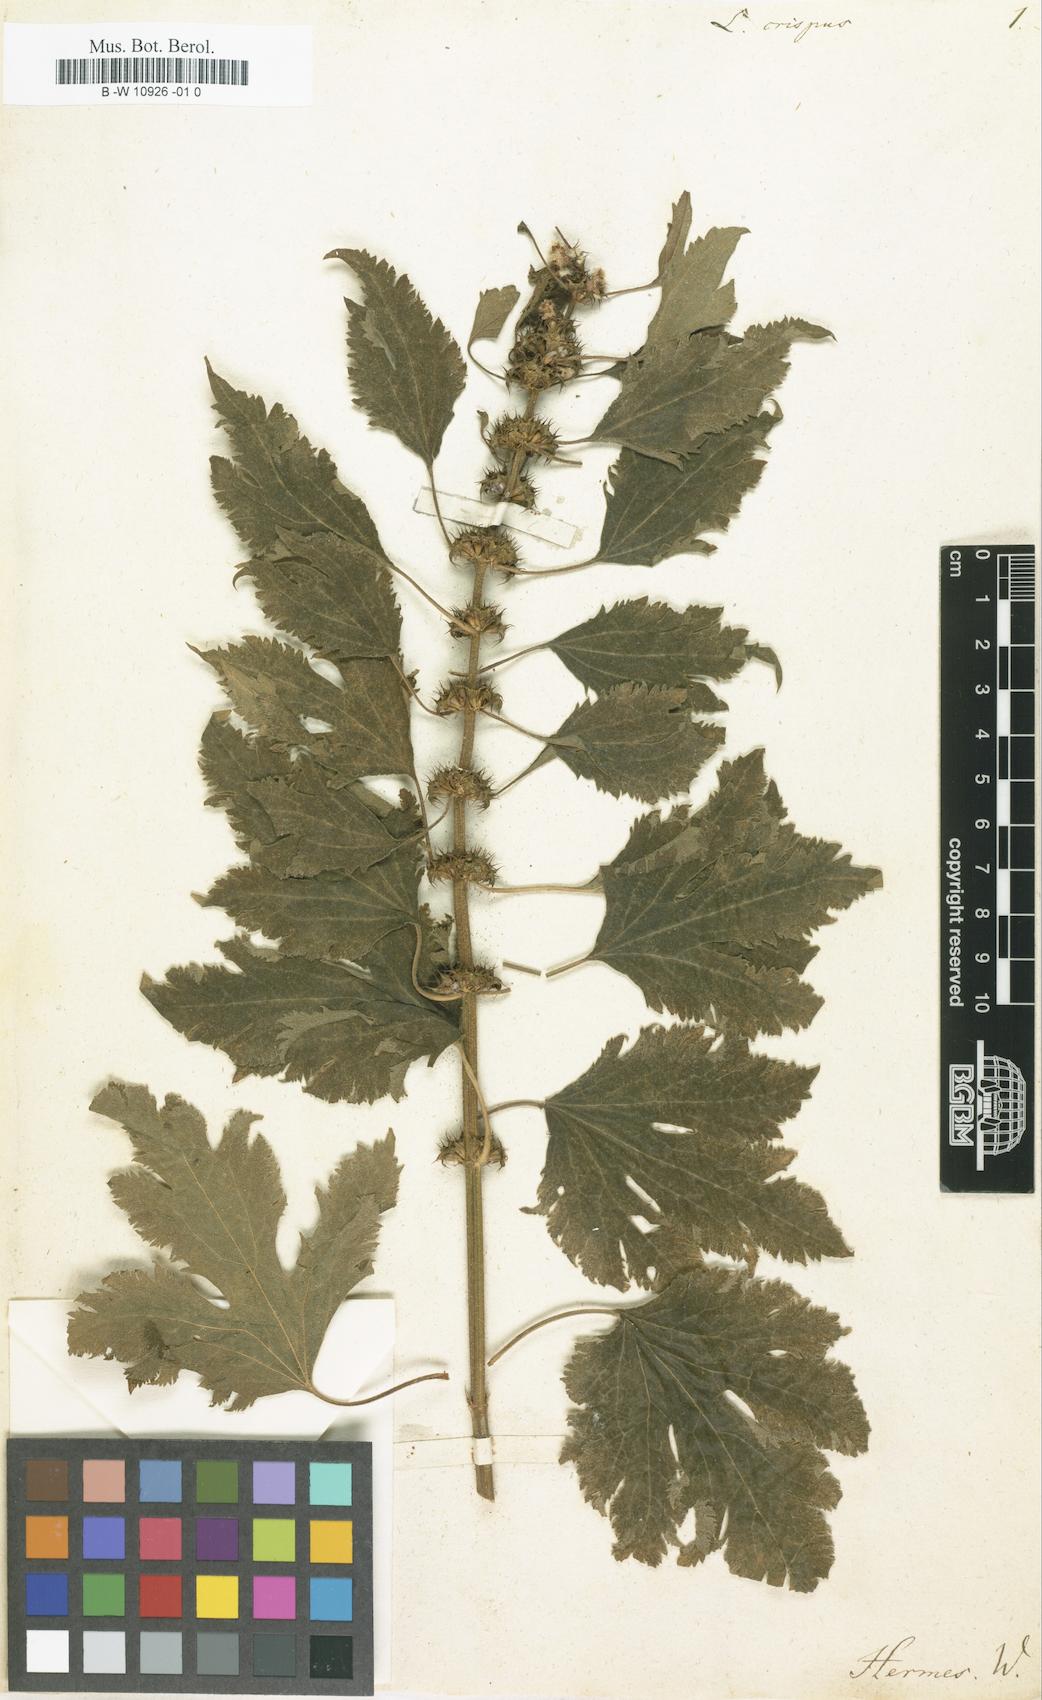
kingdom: Plantae
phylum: Tracheophyta
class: Magnoliopsida
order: Lamiales
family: Lamiaceae
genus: Leonurus
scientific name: Leonurus cardiaca
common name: Motherwort
